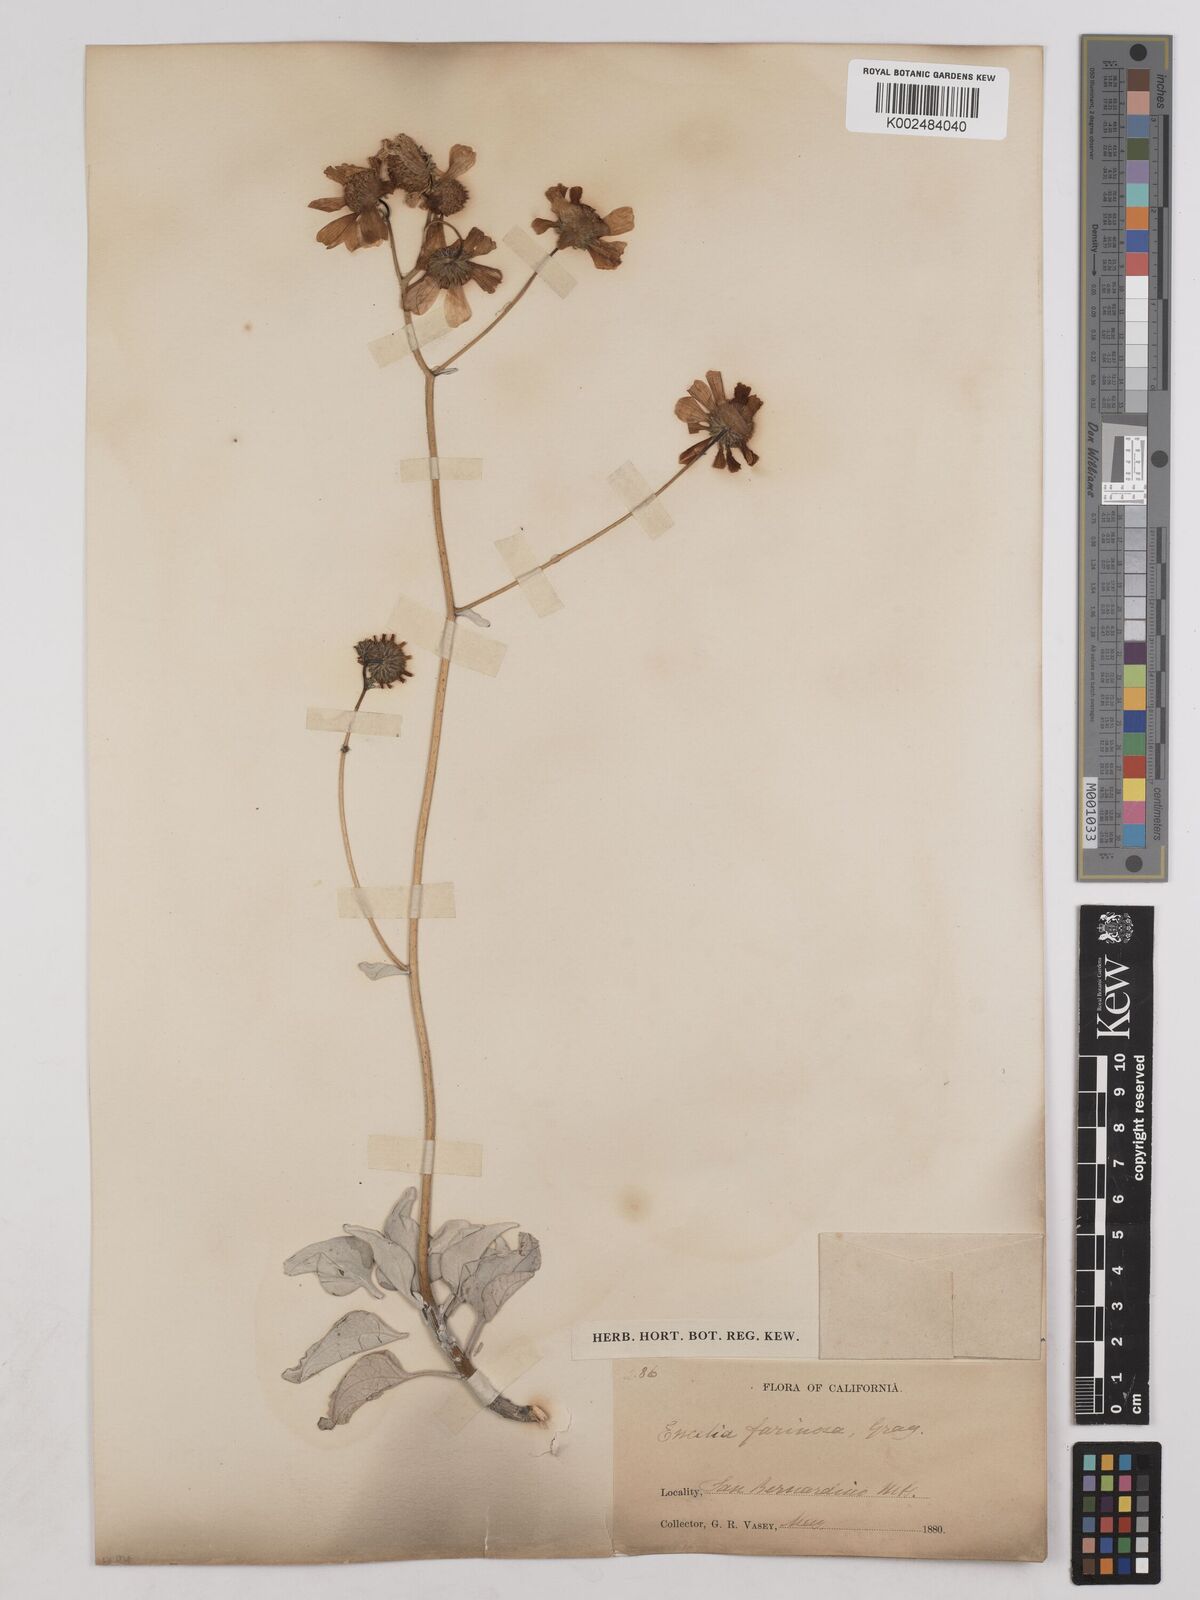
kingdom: Plantae
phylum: Tracheophyta
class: Magnoliopsida
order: Asterales
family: Asteraceae
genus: Encelia
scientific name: Encelia farinosa
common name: Brittlebush
